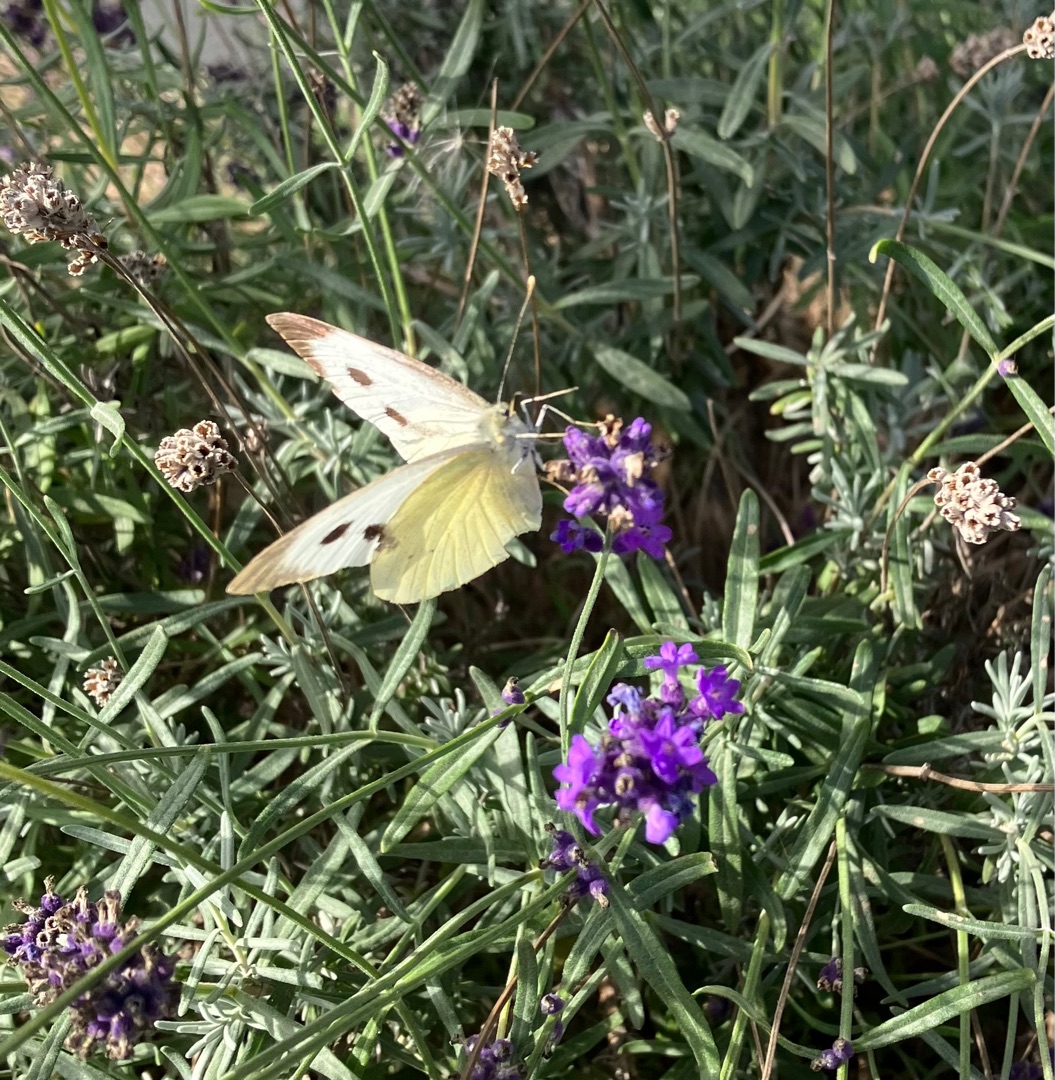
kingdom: Animalia
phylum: Arthropoda
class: Insecta
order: Lepidoptera
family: Pieridae
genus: Pieris
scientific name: Pieris brassicae
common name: Stor kålsommerfugl
